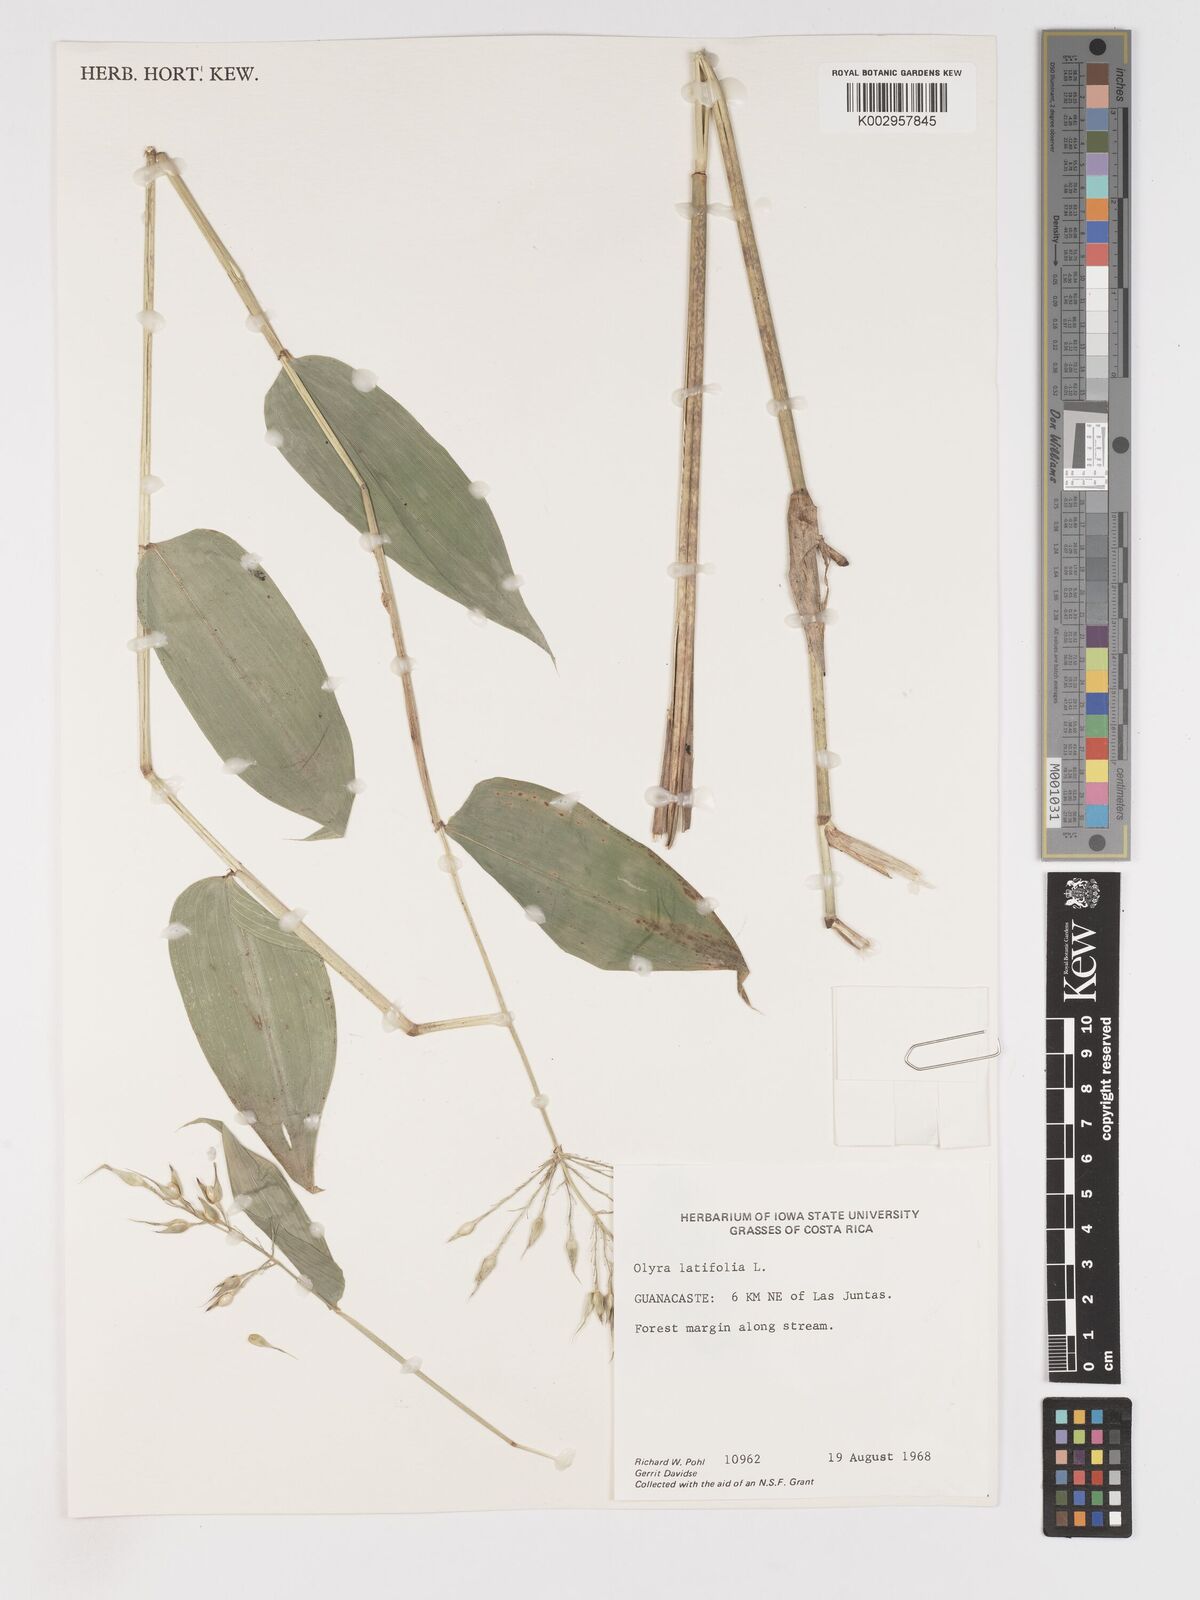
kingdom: Plantae
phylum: Tracheophyta
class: Liliopsida
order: Poales
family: Poaceae
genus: Olyra
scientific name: Olyra latifolia
